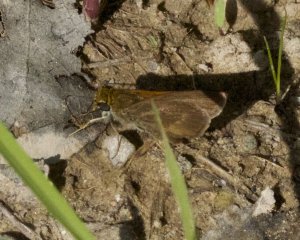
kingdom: Animalia
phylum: Arthropoda
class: Insecta
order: Lepidoptera
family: Hesperiidae
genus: Polites
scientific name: Polites themistocles
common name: Tawny-edged Skipper
